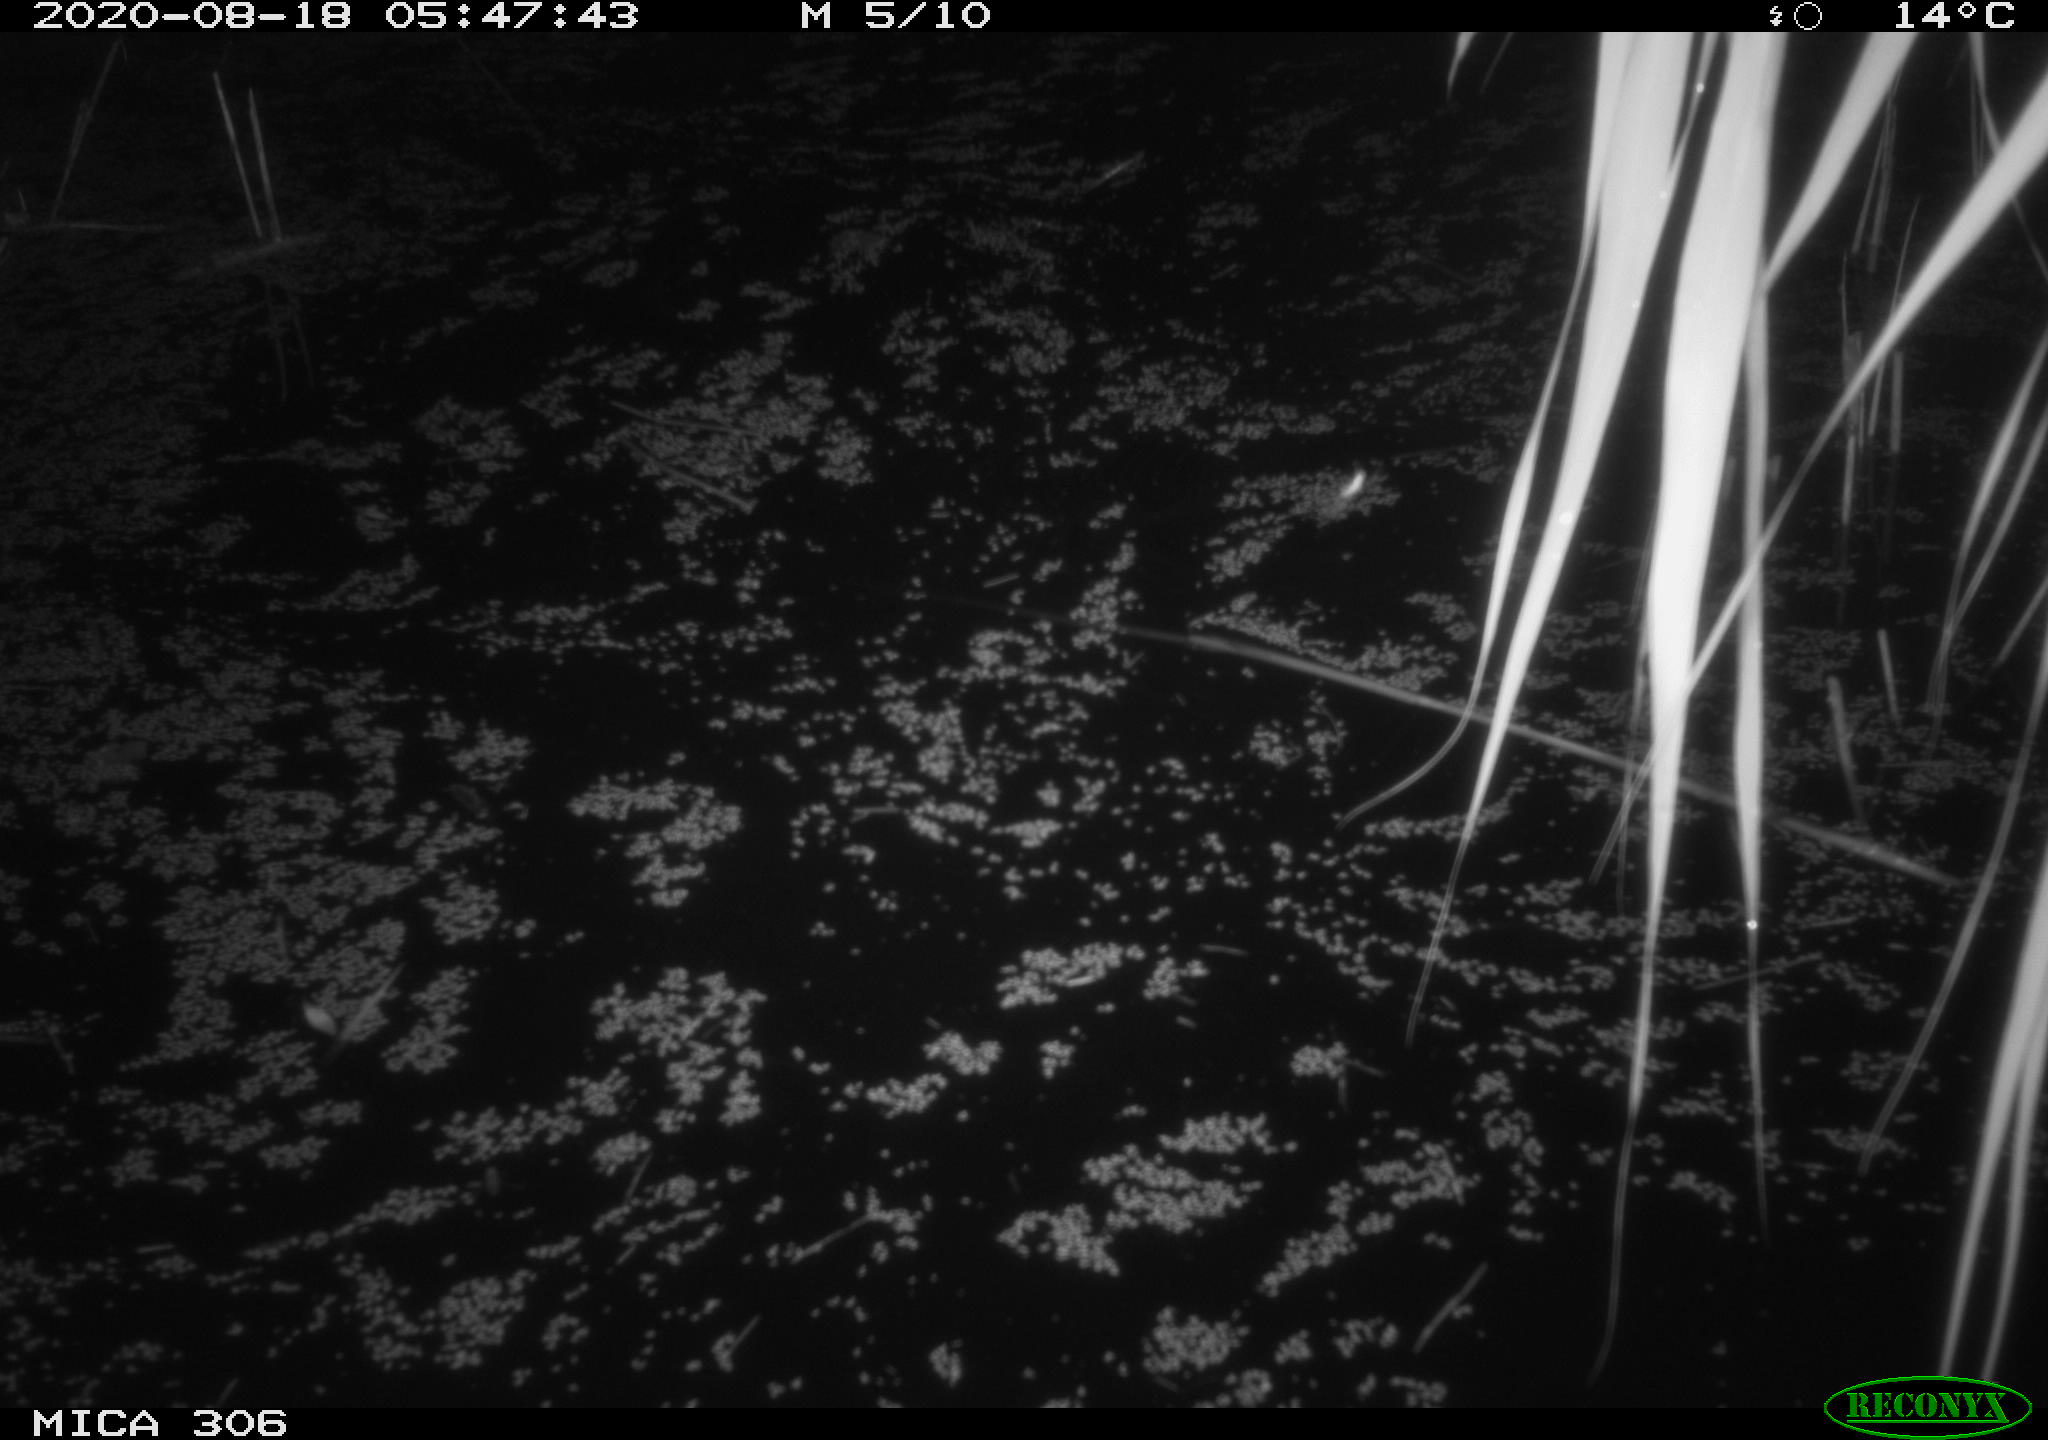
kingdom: Animalia
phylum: Chordata
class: Mammalia
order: Rodentia
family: Muridae
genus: Rattus
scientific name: Rattus norvegicus
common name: Brown rat
